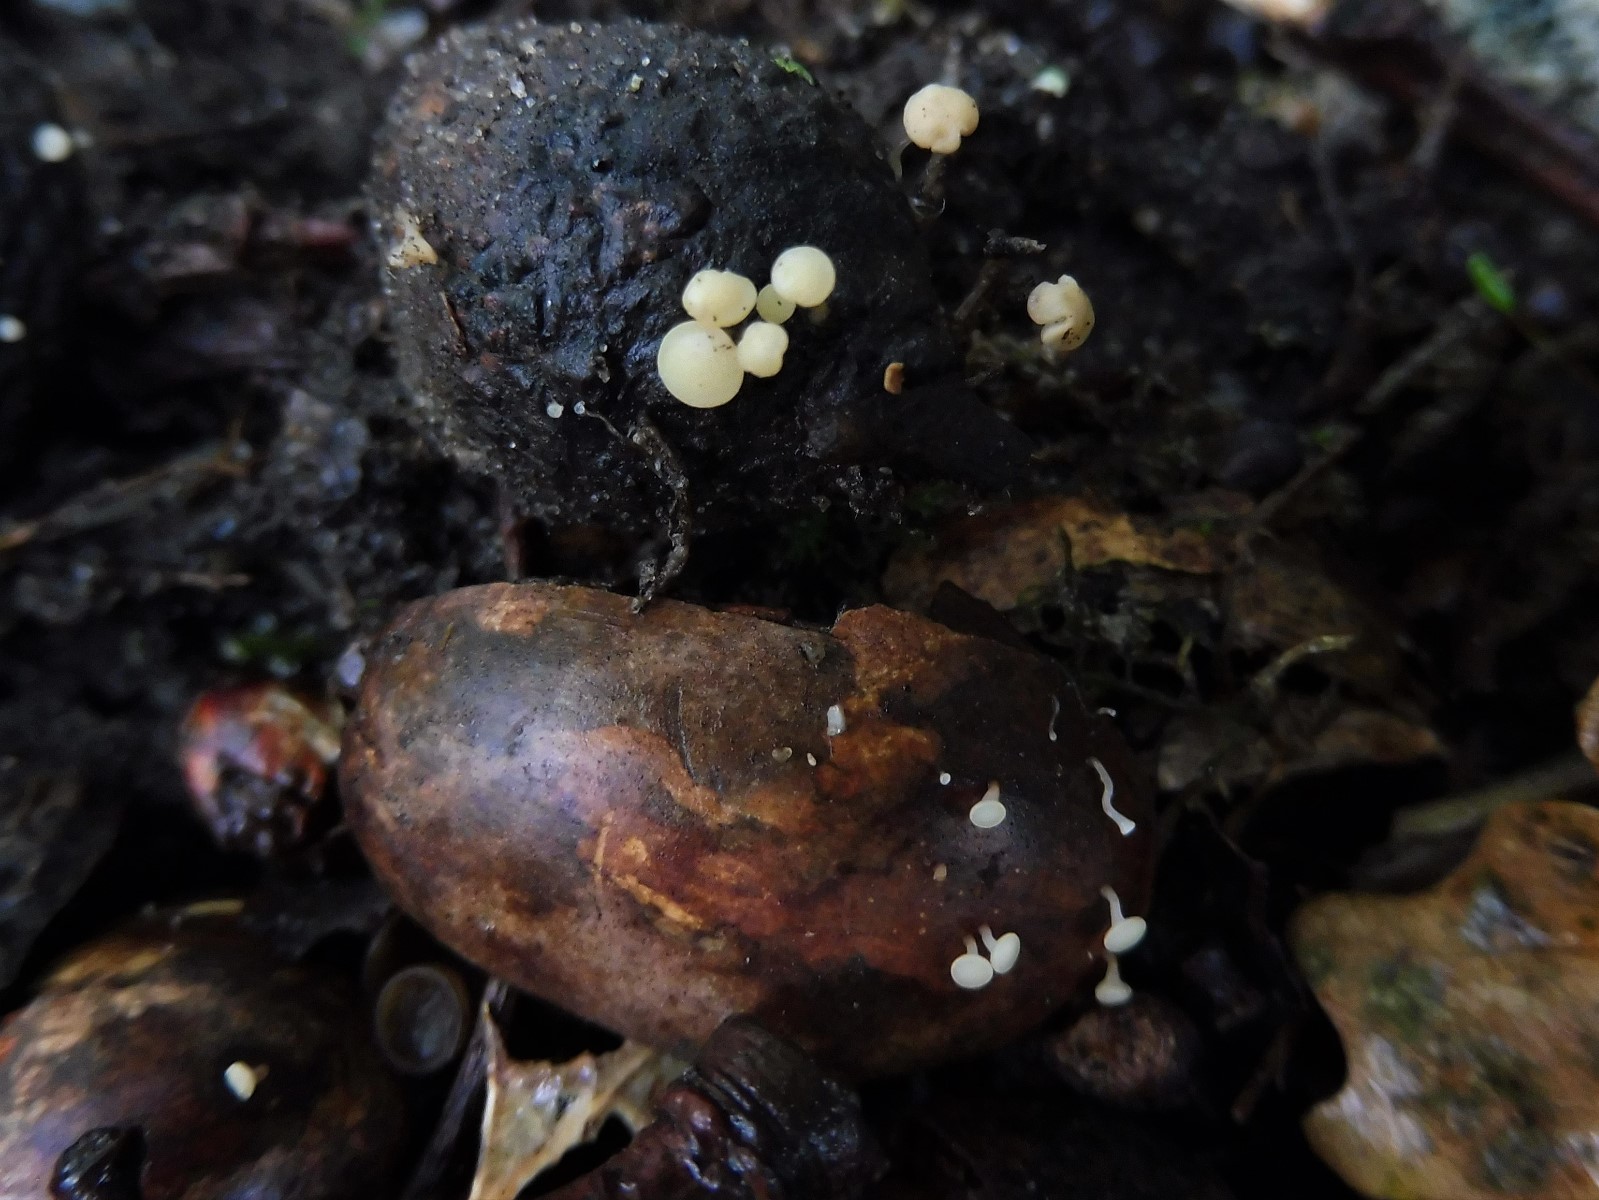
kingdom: Fungi
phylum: Ascomycota
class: Leotiomycetes
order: Helotiales
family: Helotiaceae
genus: Hymenoscyphus
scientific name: Hymenoscyphus fructigenus
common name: frugt-stilkskive
